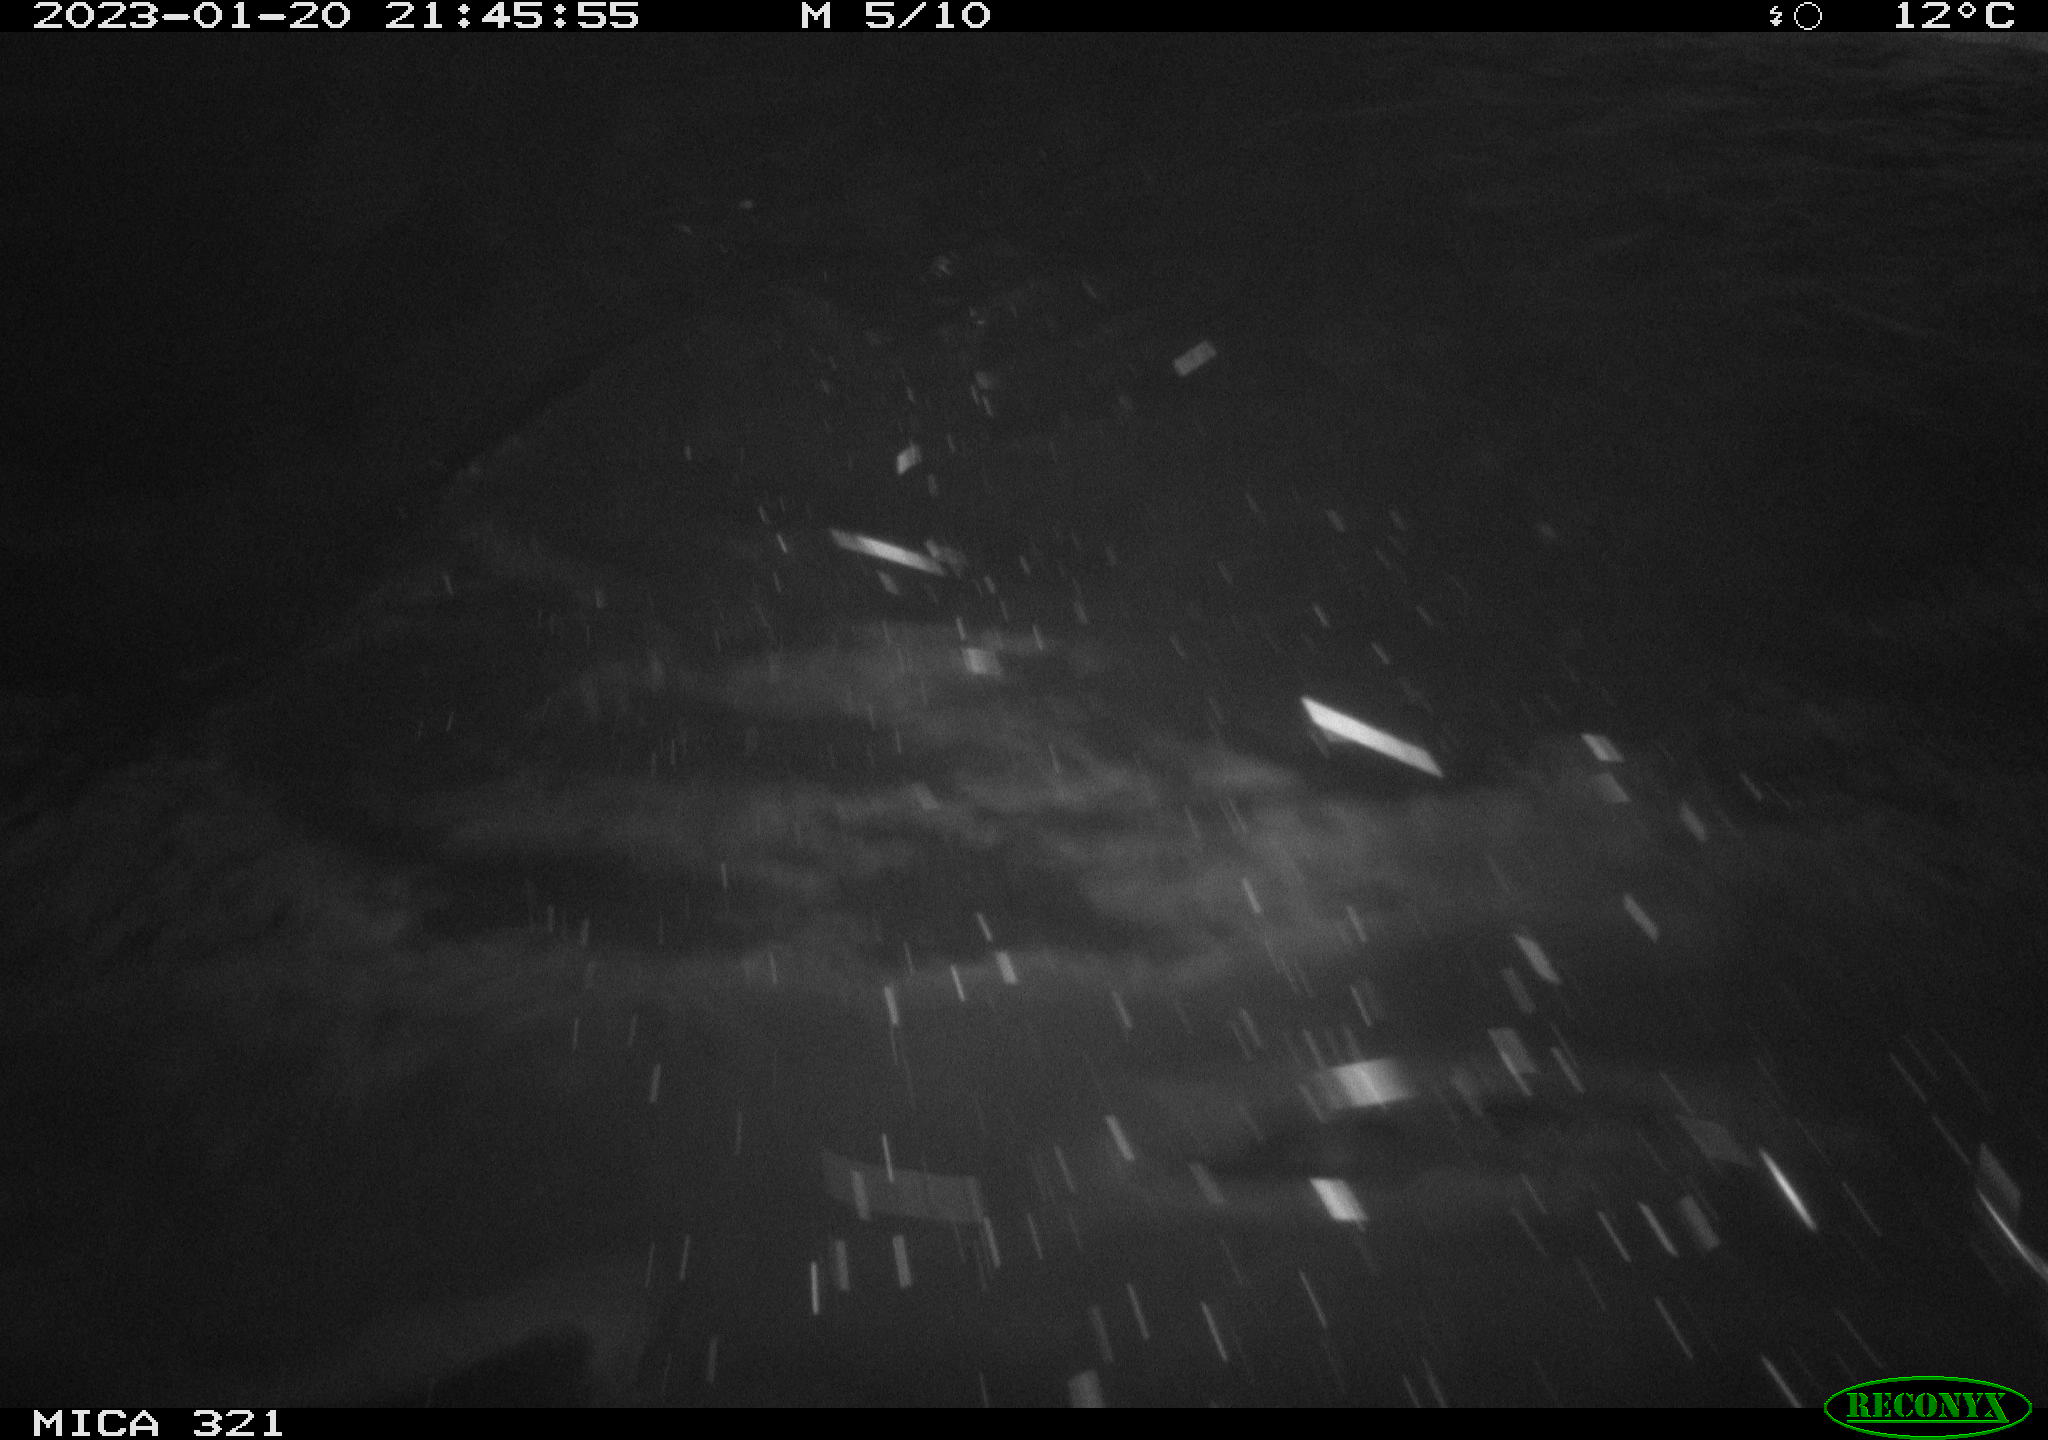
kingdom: Animalia
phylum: Chordata
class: Mammalia
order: Rodentia
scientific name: Rodentia
